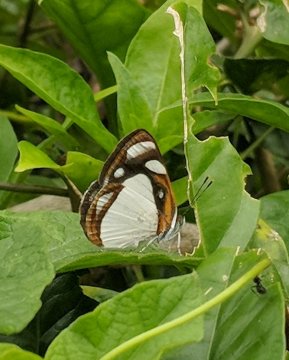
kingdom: Animalia
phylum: Arthropoda
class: Insecta
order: Lepidoptera
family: Nymphalidae
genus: Dynamine
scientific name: Dynamine theseus
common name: White Sailor
